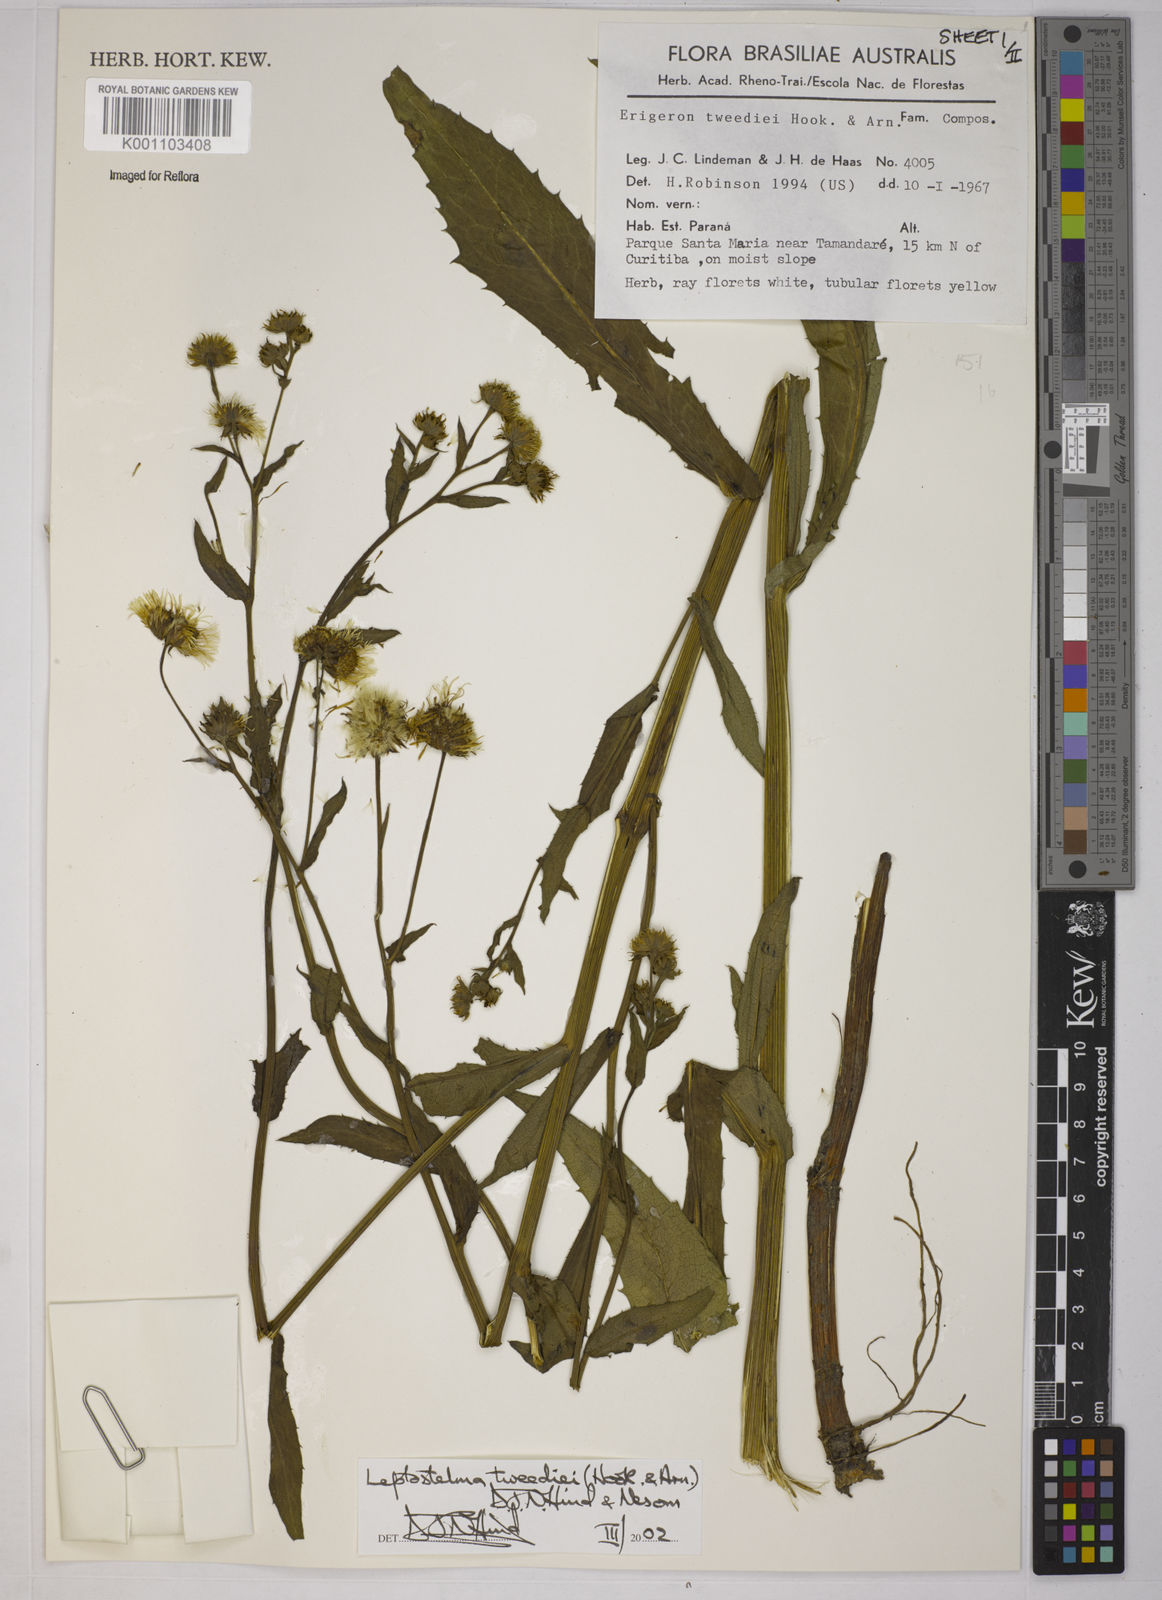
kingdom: Plantae
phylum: Tracheophyta
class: Magnoliopsida
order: Asterales
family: Asteraceae
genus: Leptostelma
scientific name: Leptostelma tweediei
